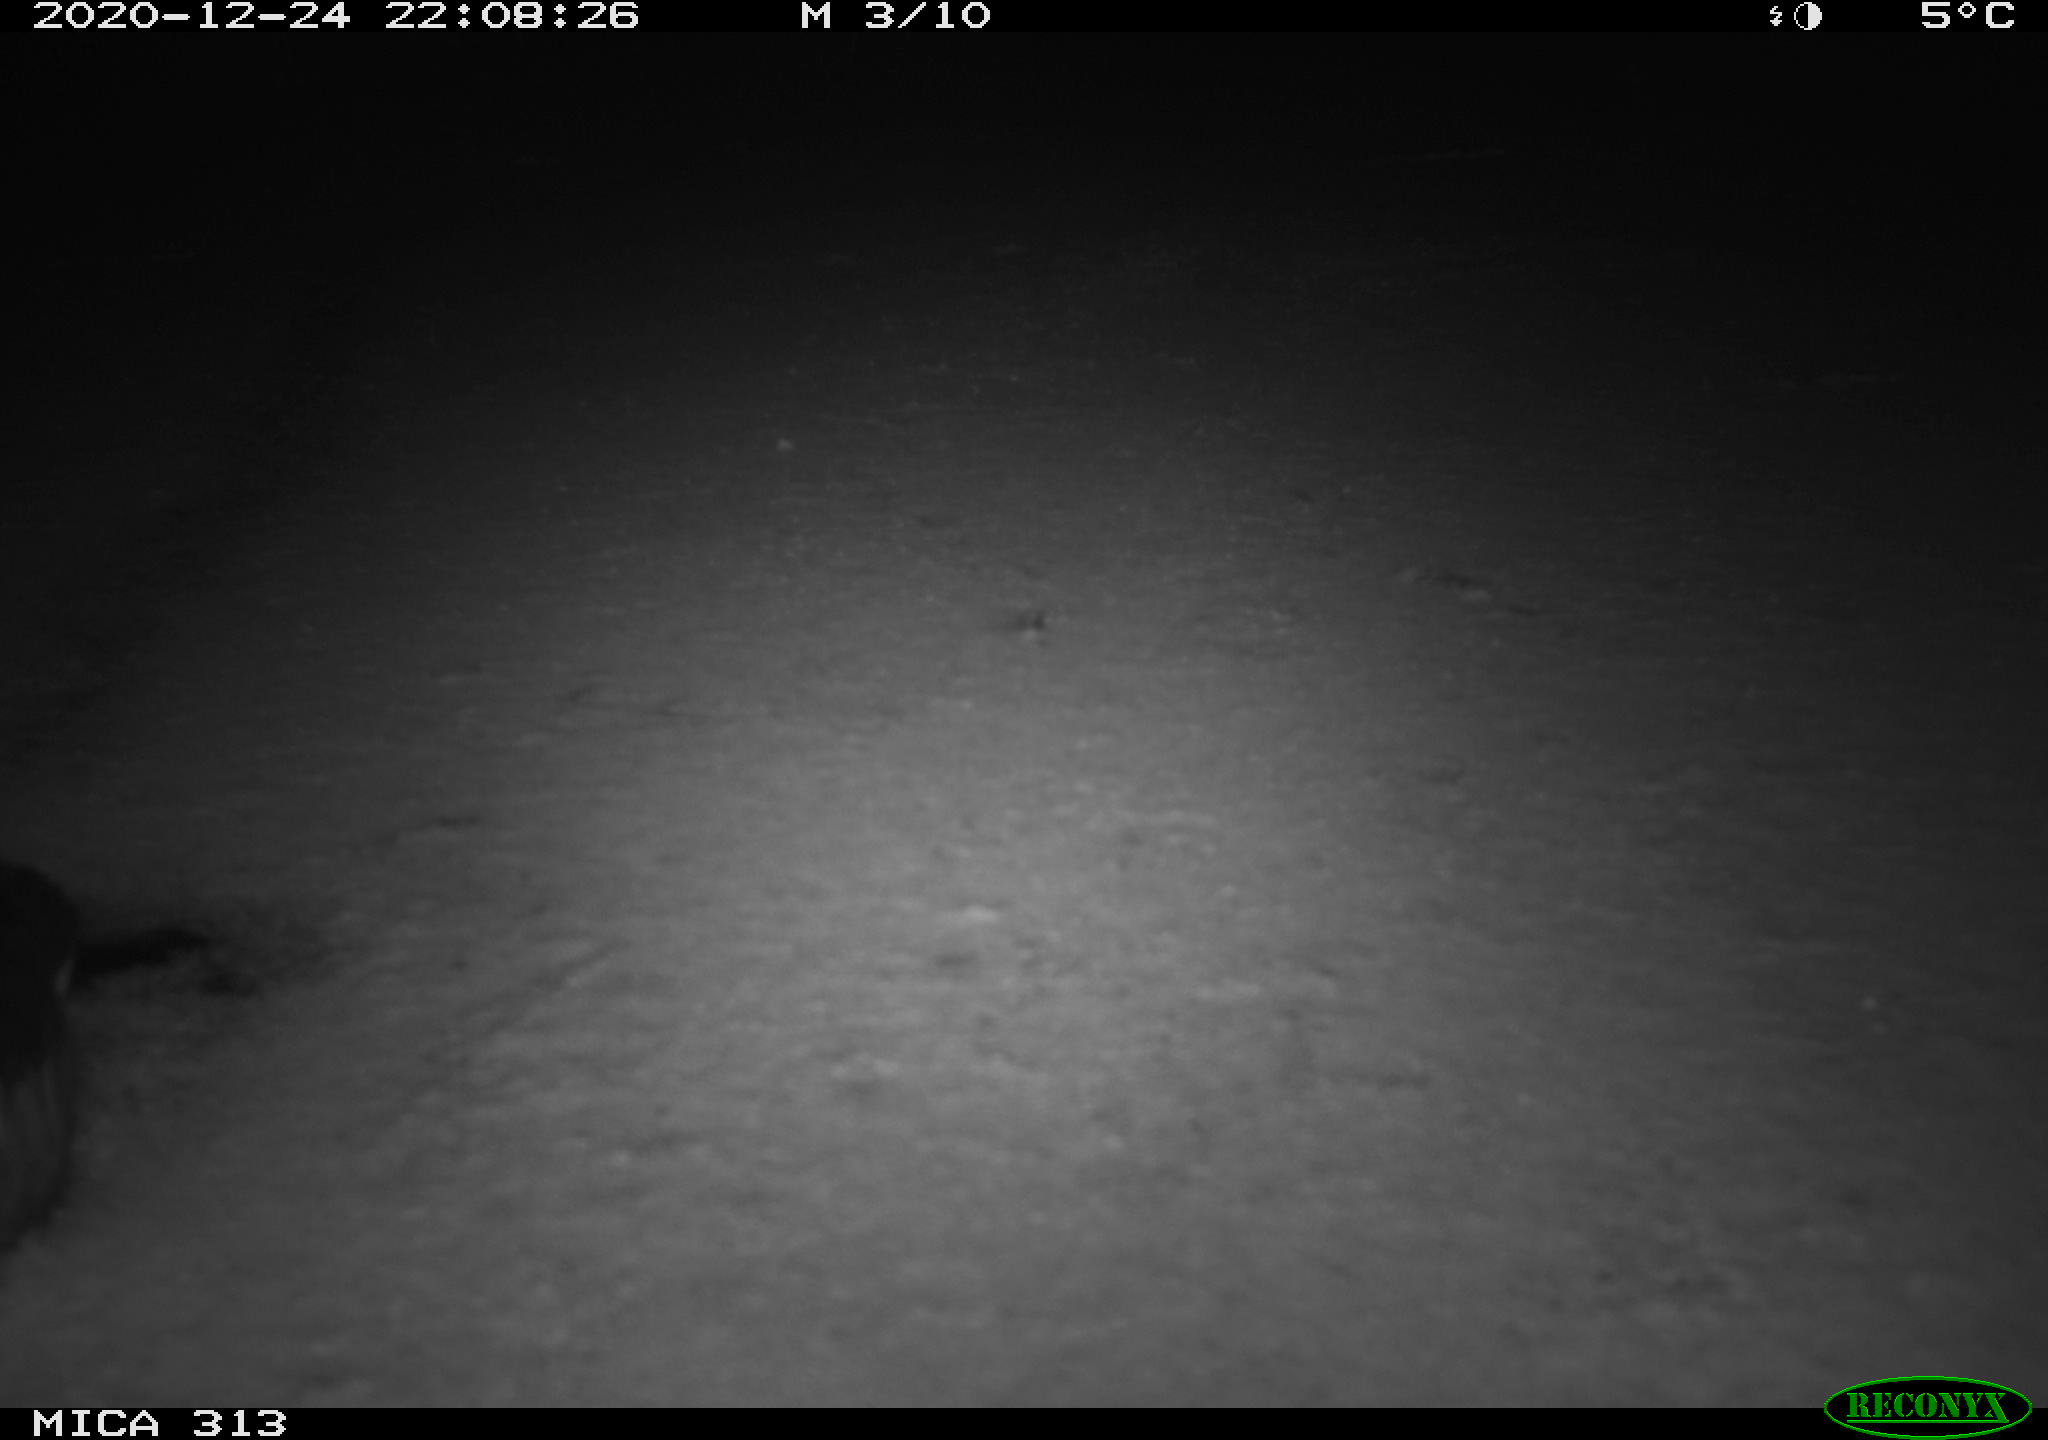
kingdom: Animalia
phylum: Chordata
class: Aves
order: Gruiformes
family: Rallidae
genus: Gallinula
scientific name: Gallinula chloropus
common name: Common moorhen
